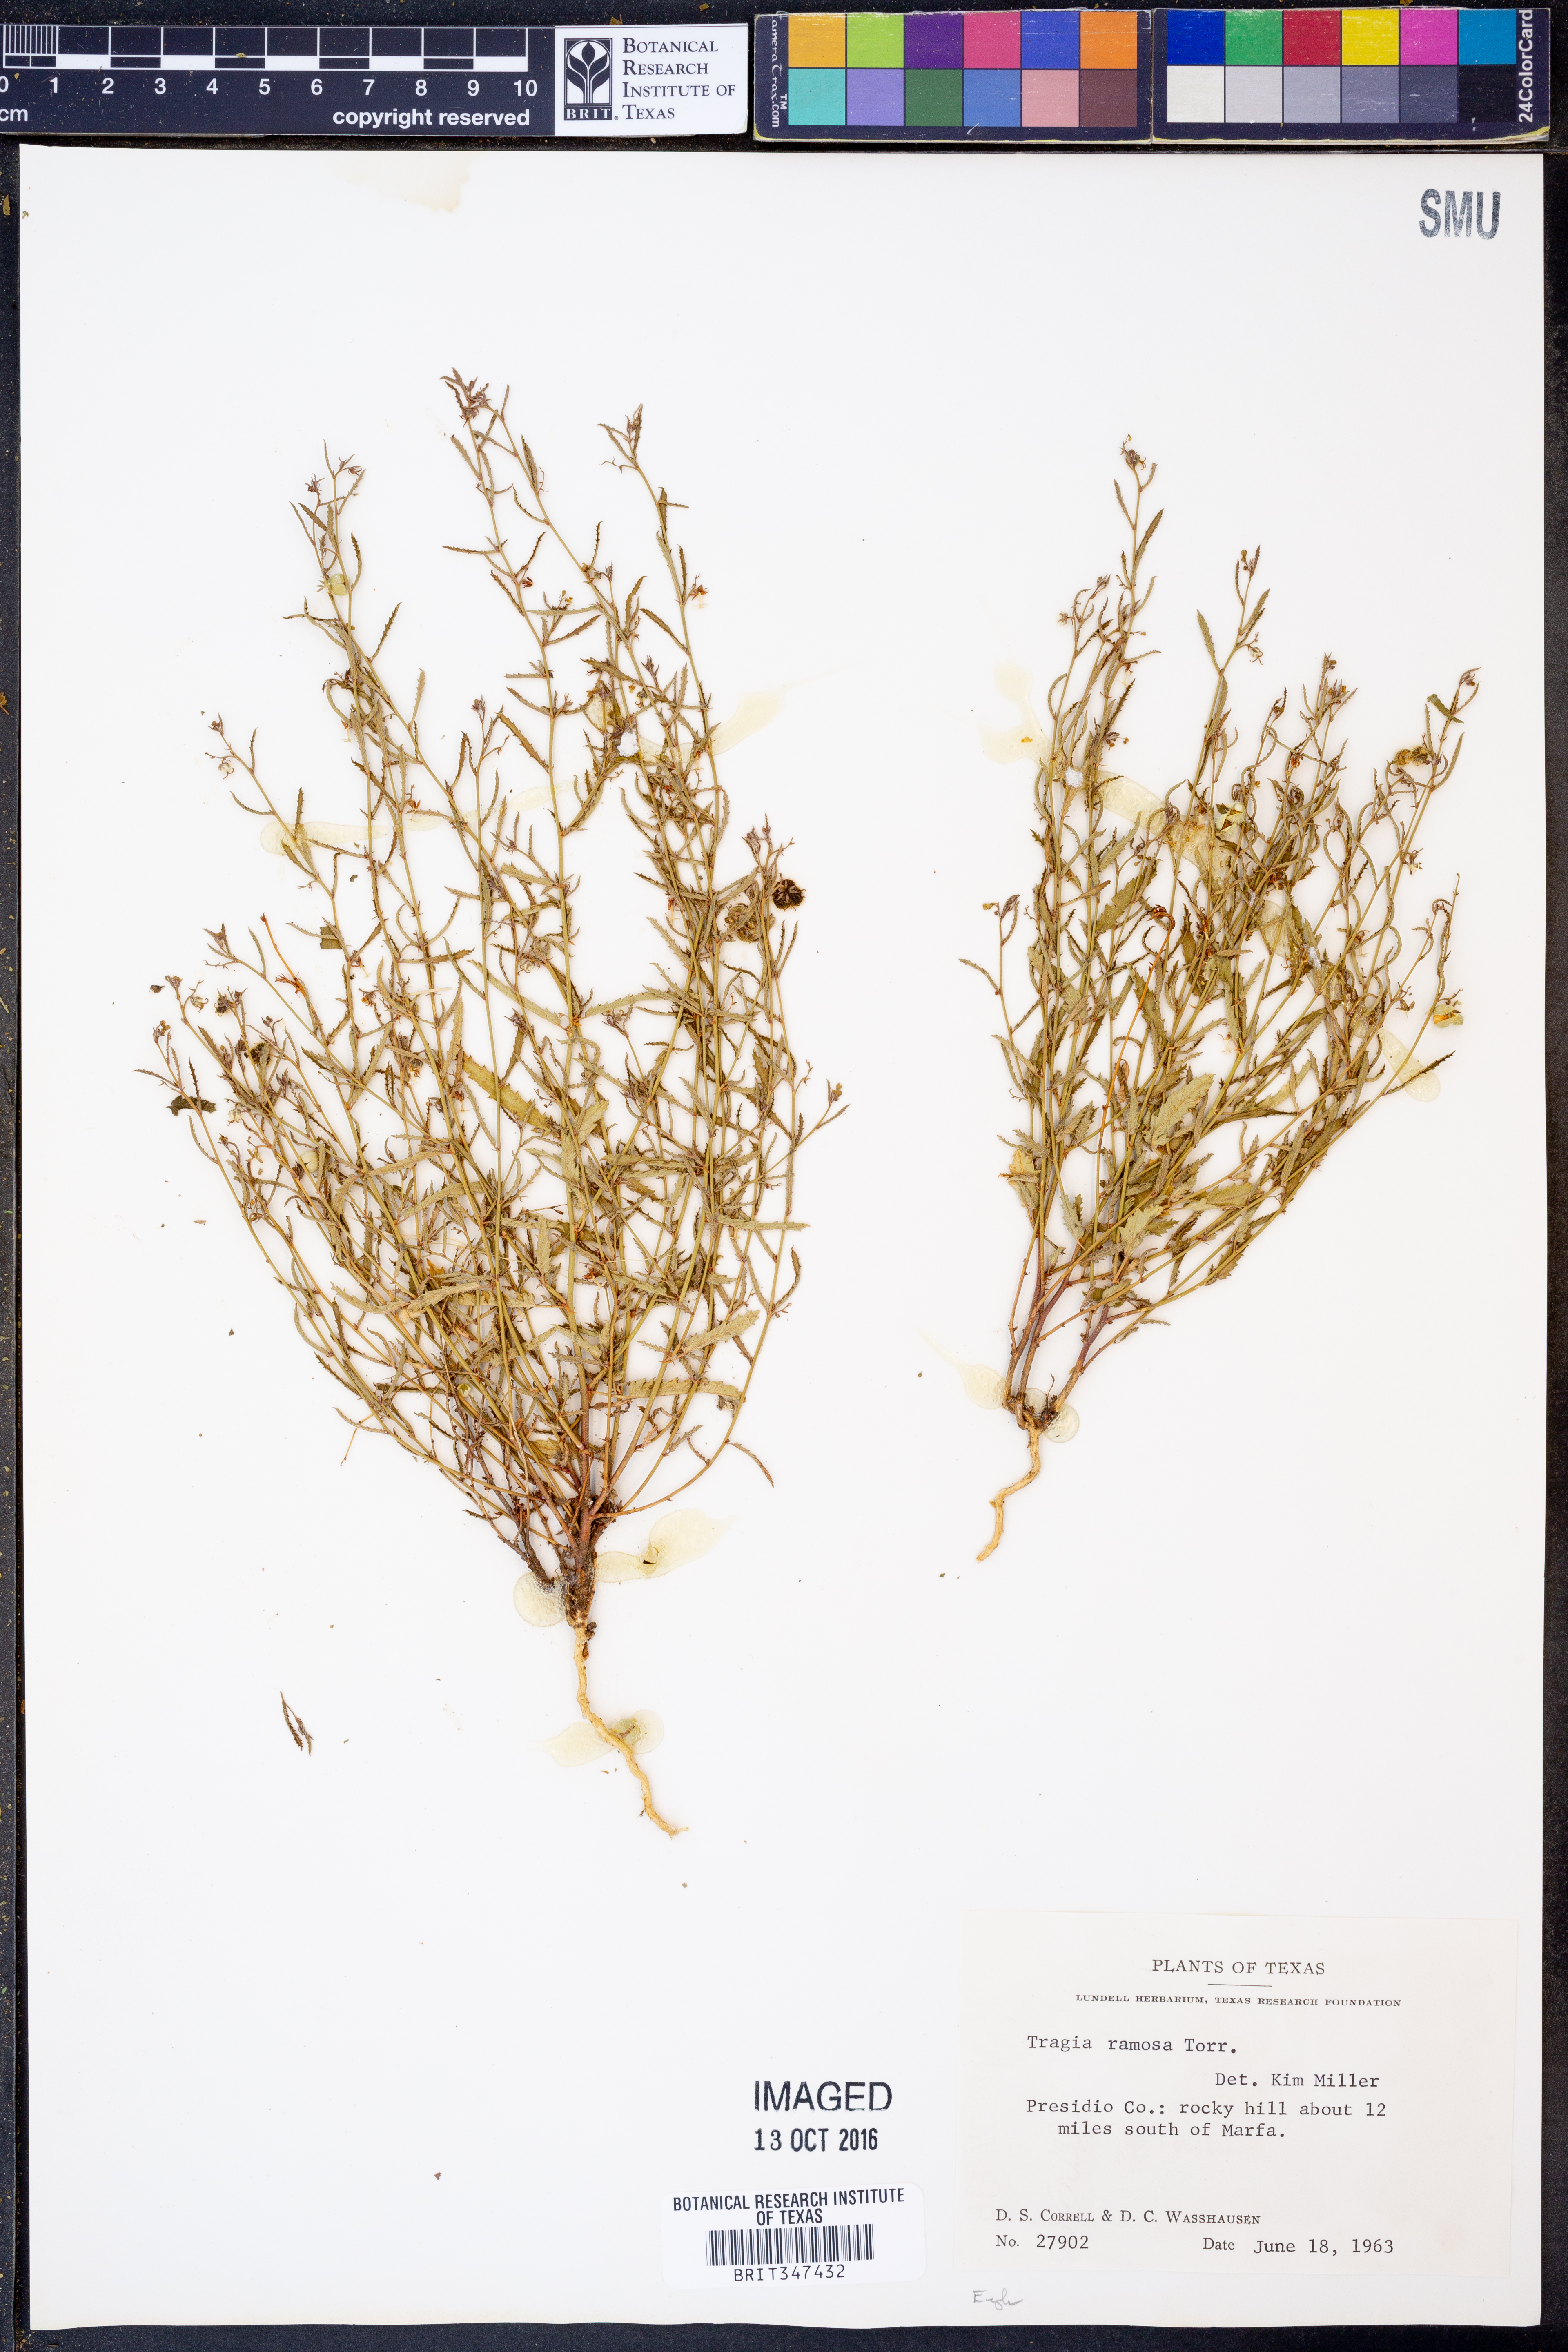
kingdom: Plantae
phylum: Tracheophyta
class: Magnoliopsida
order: Malpighiales
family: Euphorbiaceae
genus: Tragia
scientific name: Tragia ramosa
